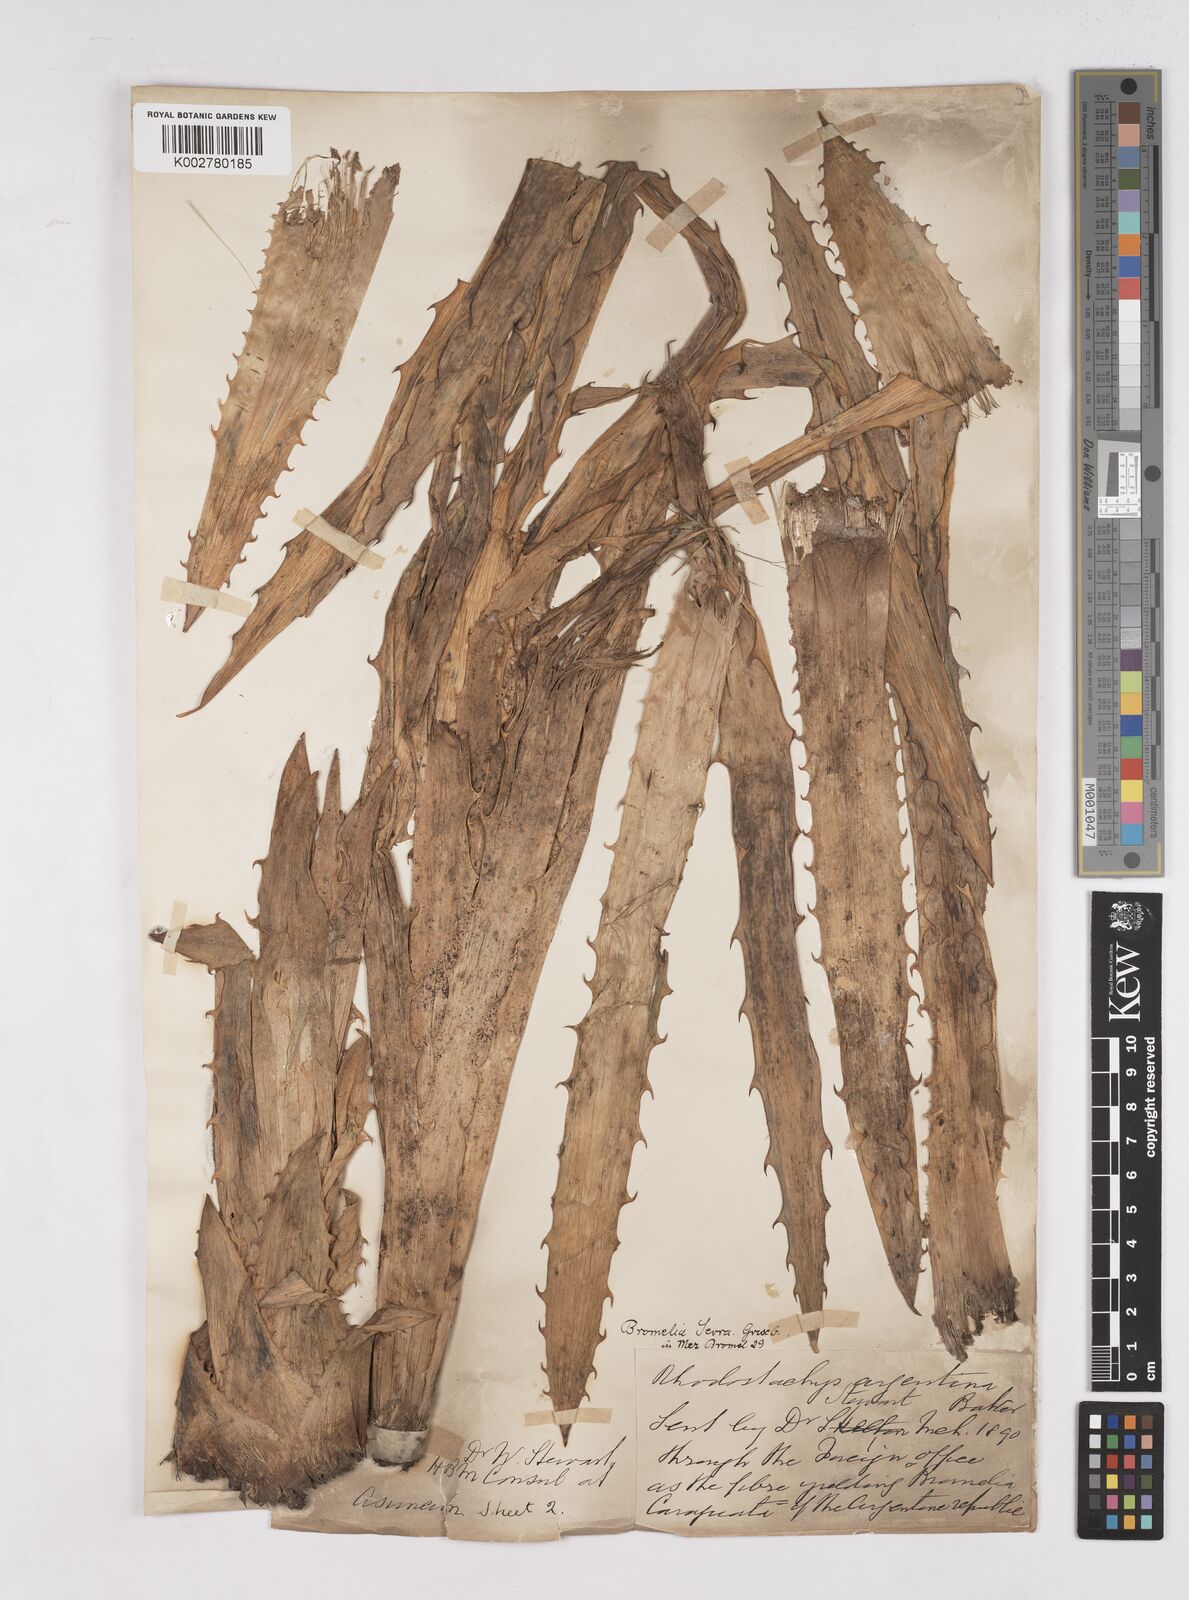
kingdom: Plantae
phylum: Tracheophyta
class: Liliopsida
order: Poales
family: Bromeliaceae
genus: Bromelia
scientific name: Bromelia serra
